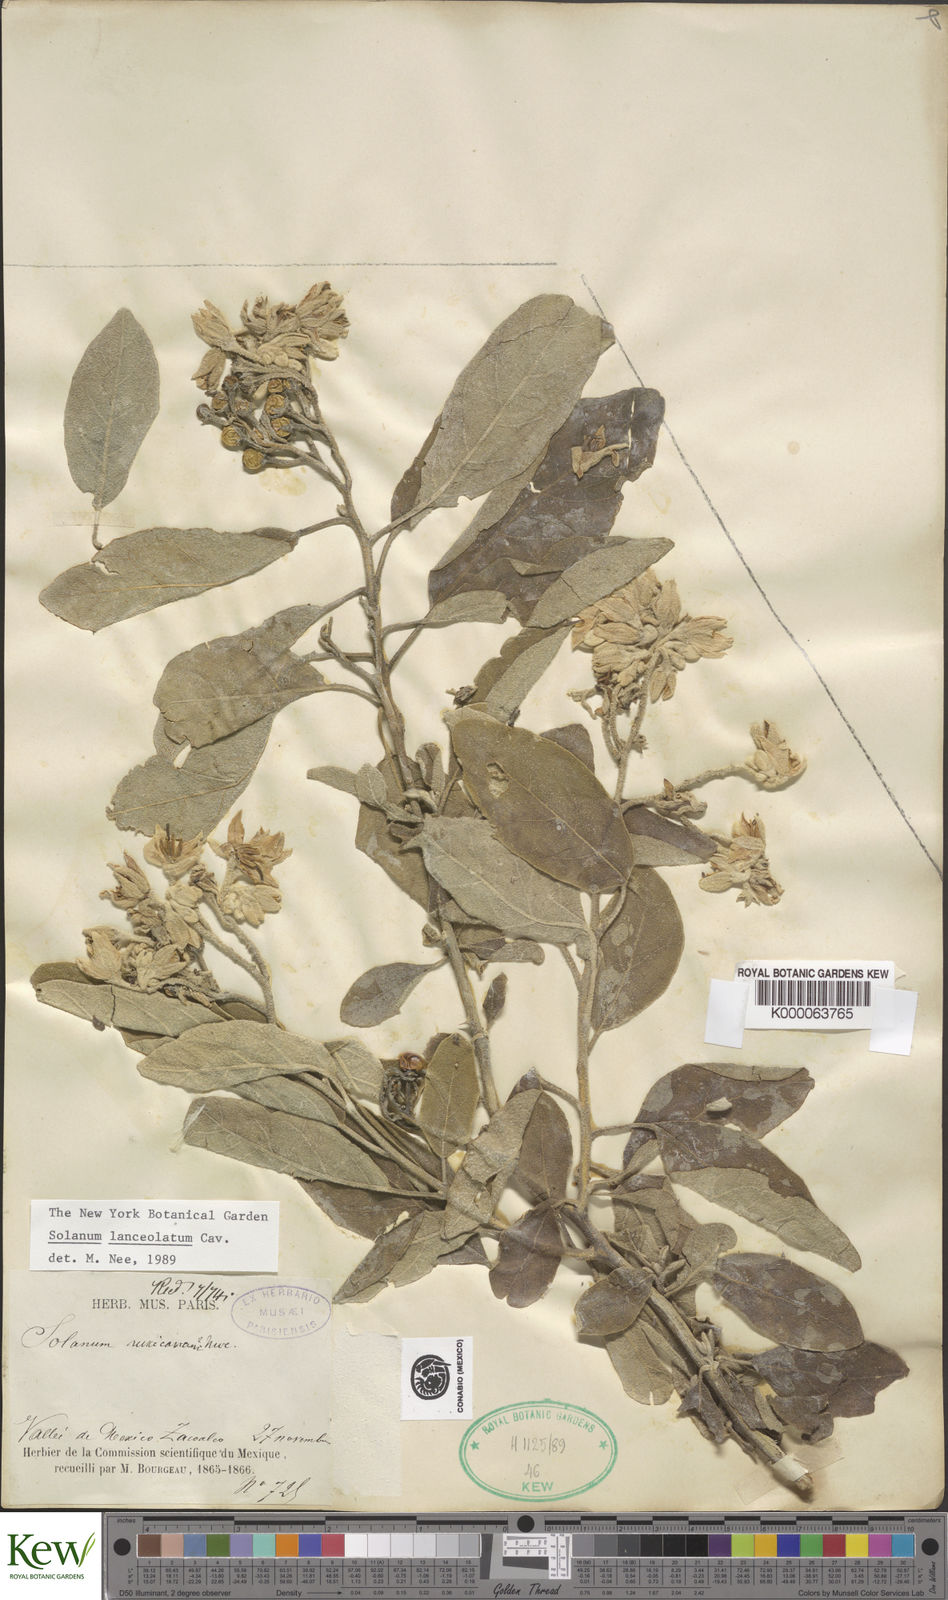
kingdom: Plantae
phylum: Tracheophyta
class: Magnoliopsida
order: Solanales
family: Solanaceae
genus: Solanum
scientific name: Solanum lanceolatum
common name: Orangeberry nightshade
